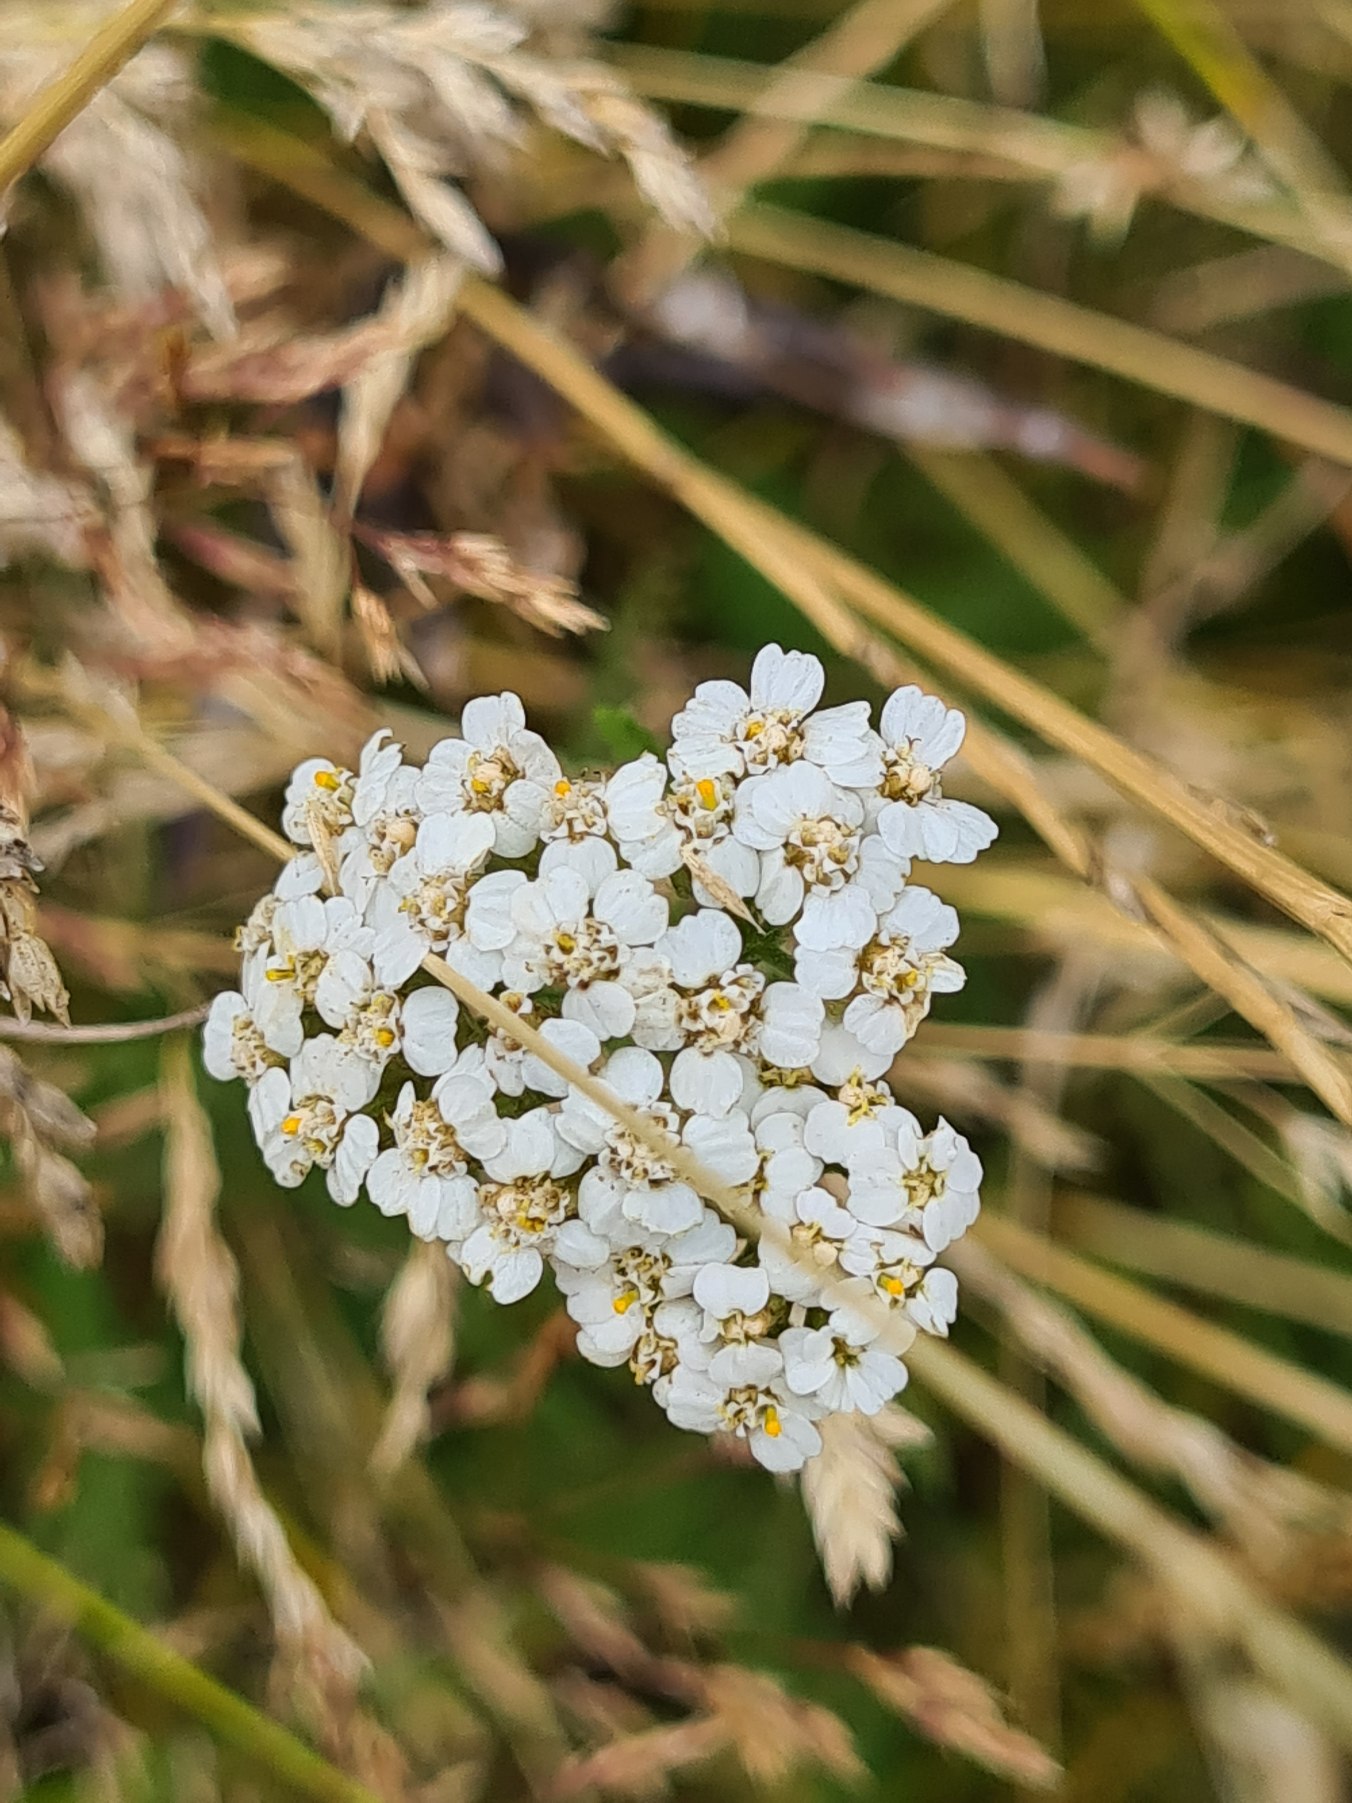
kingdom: Plantae
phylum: Tracheophyta
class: Magnoliopsida
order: Asterales
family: Asteraceae
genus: Achillea
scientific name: Achillea millefolium
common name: Almindelig røllike
